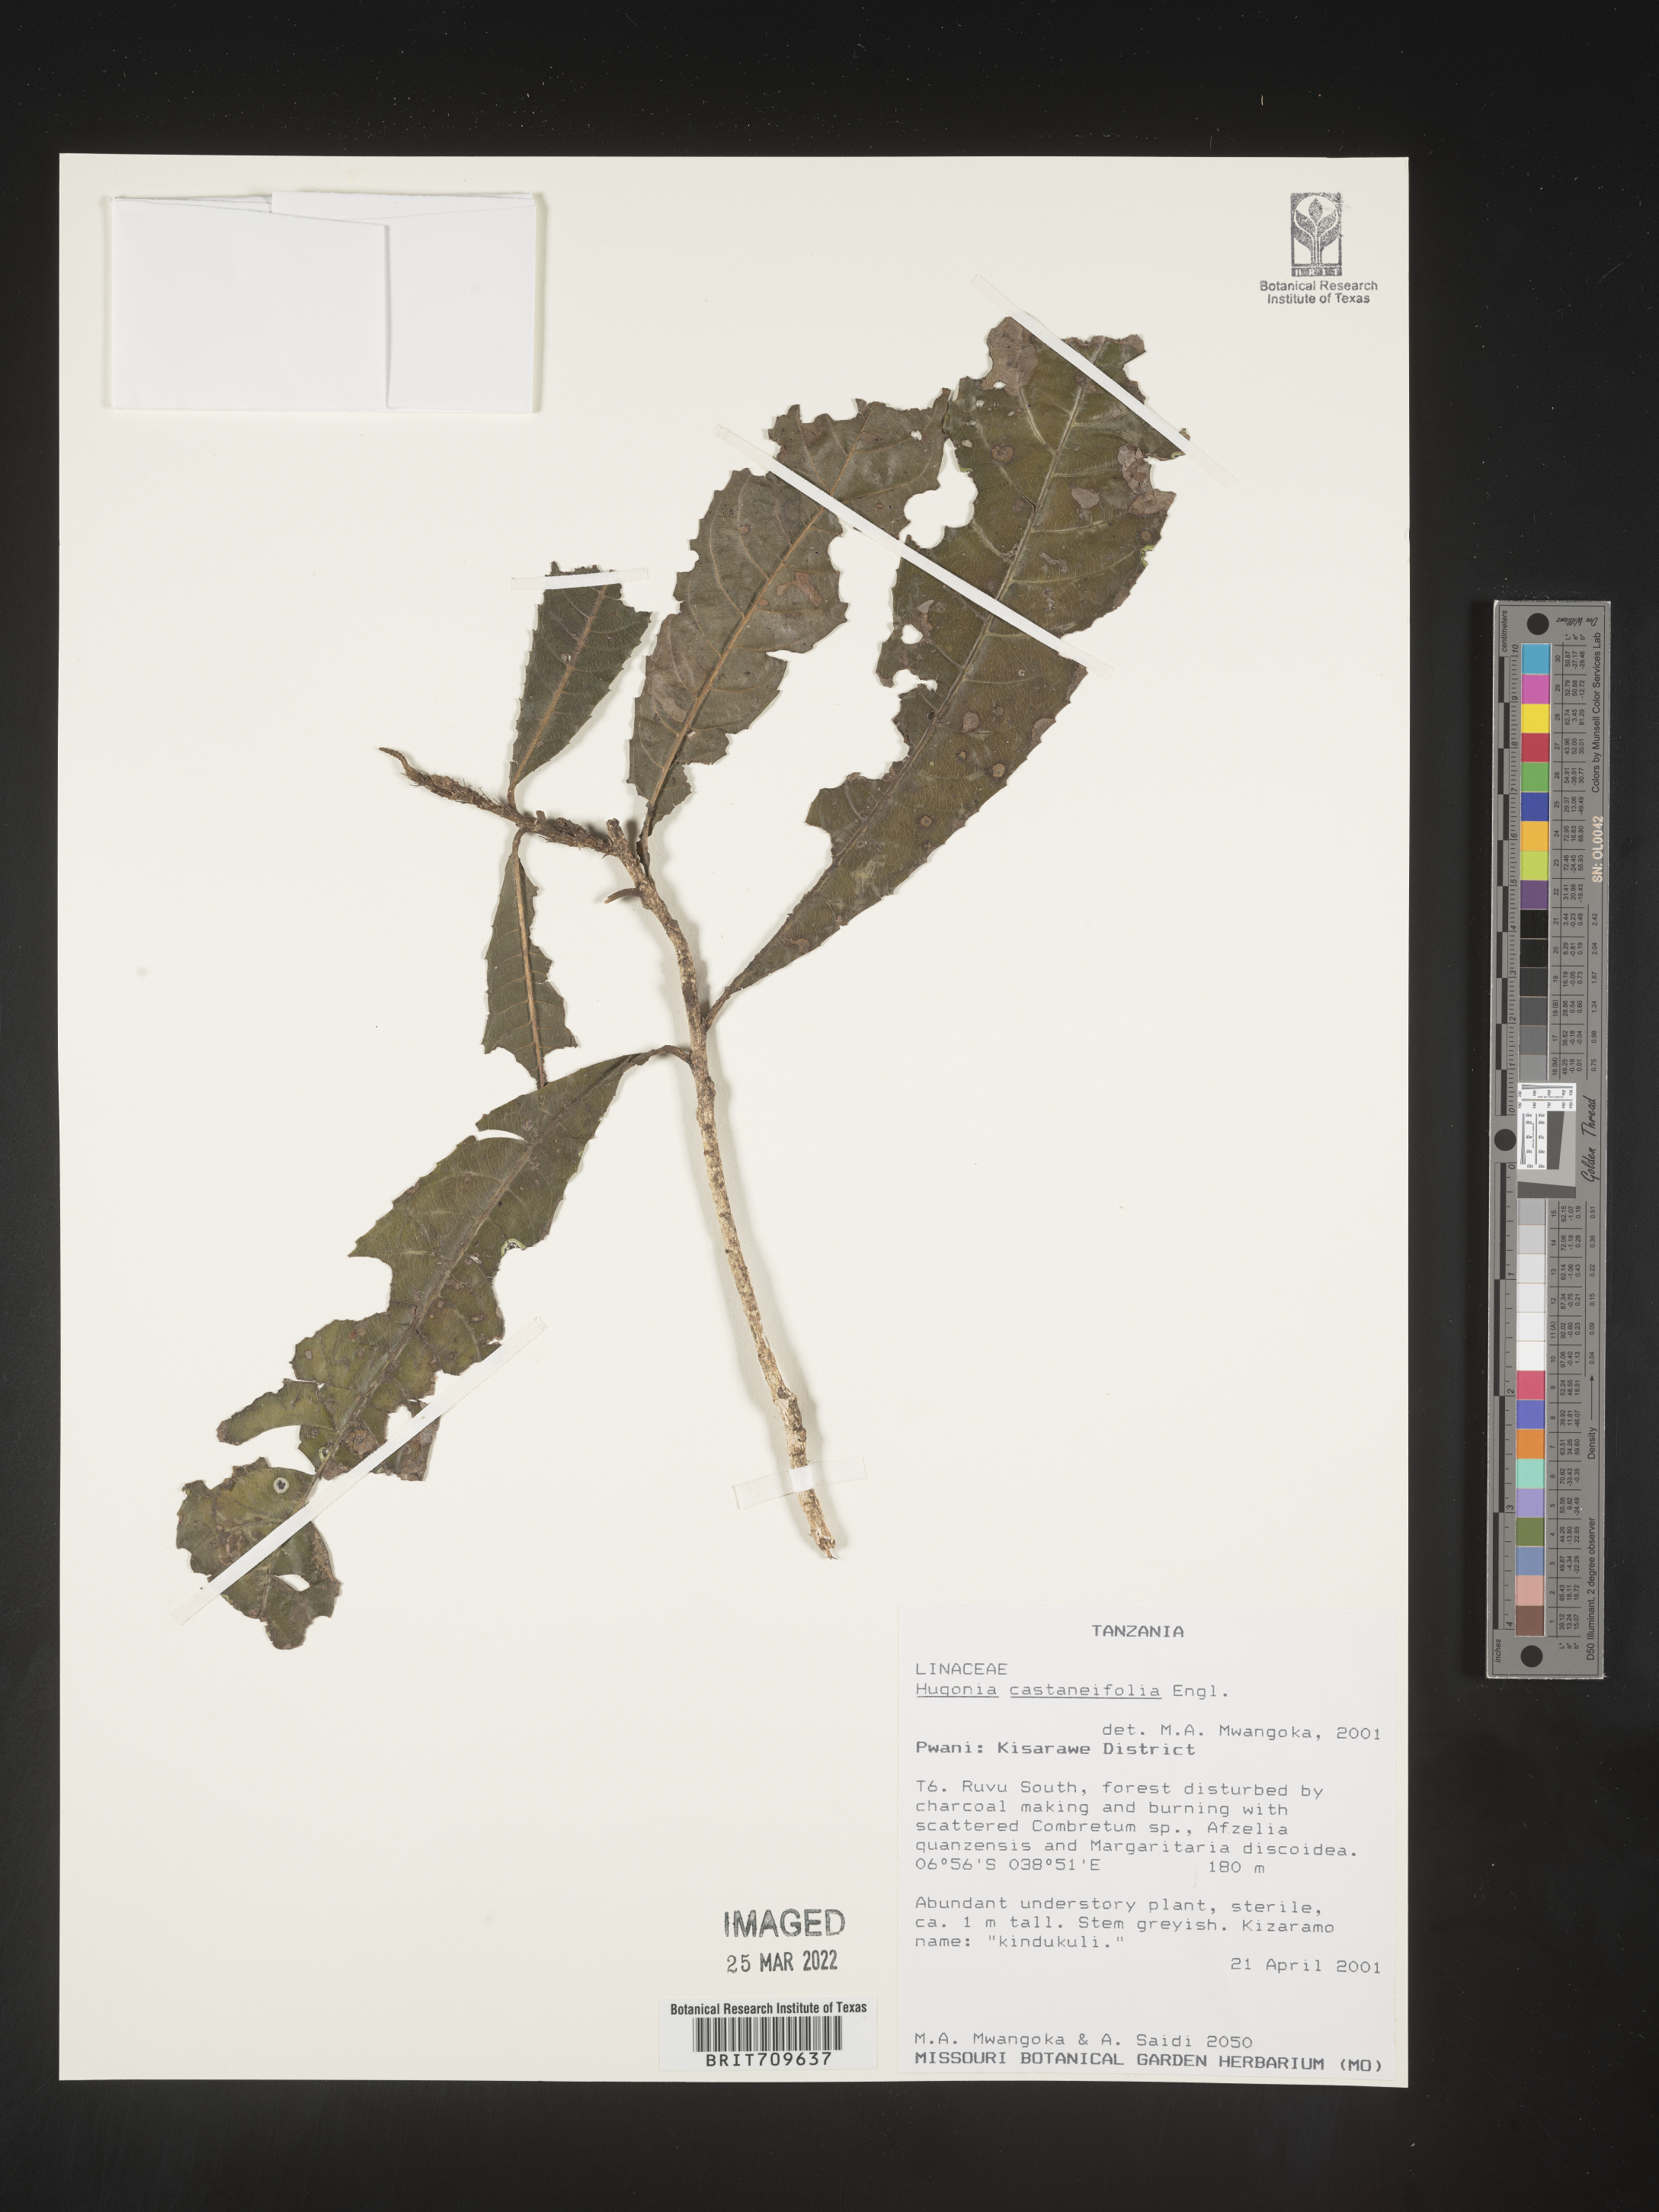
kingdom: Plantae
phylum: Tracheophyta
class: Magnoliopsida
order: Malpighiales
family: Linaceae
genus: Hugonia
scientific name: Hugonia
